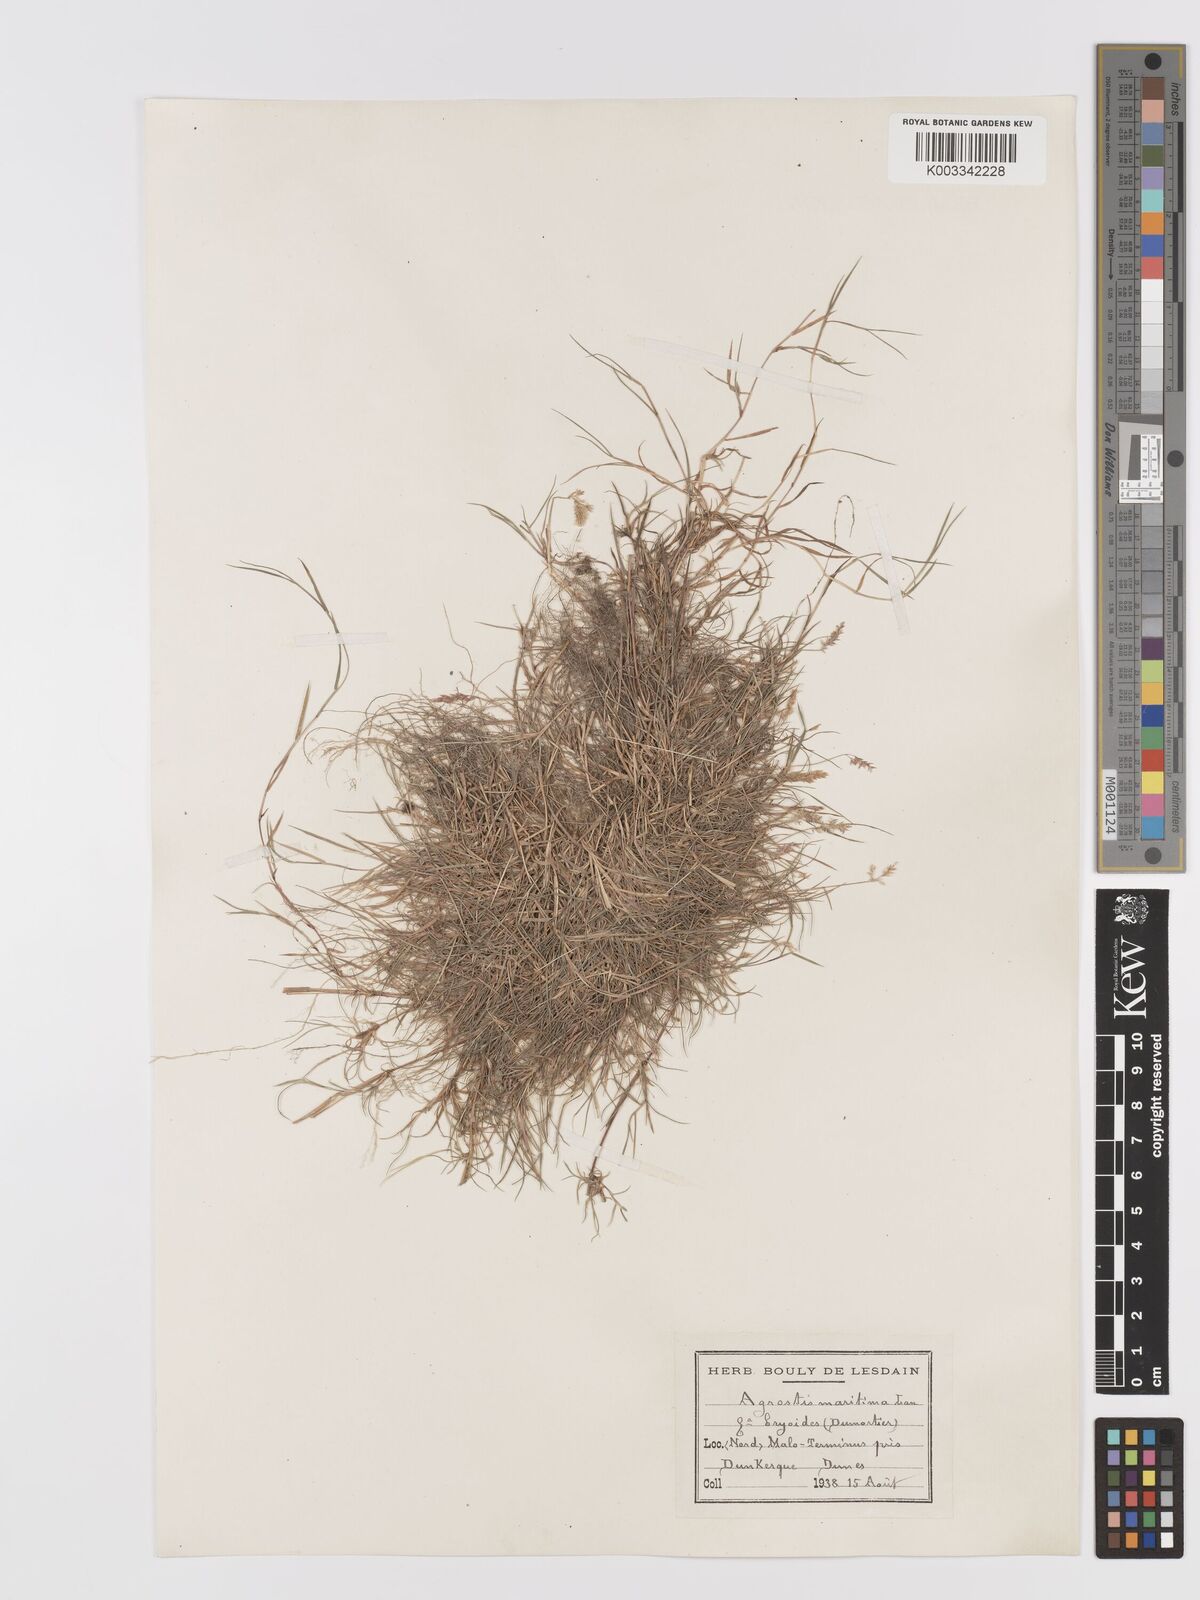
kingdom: Plantae
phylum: Tracheophyta
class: Liliopsida
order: Poales
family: Poaceae
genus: Agrostis
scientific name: Agrostis stolonifera
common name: Creeping bentgrass
